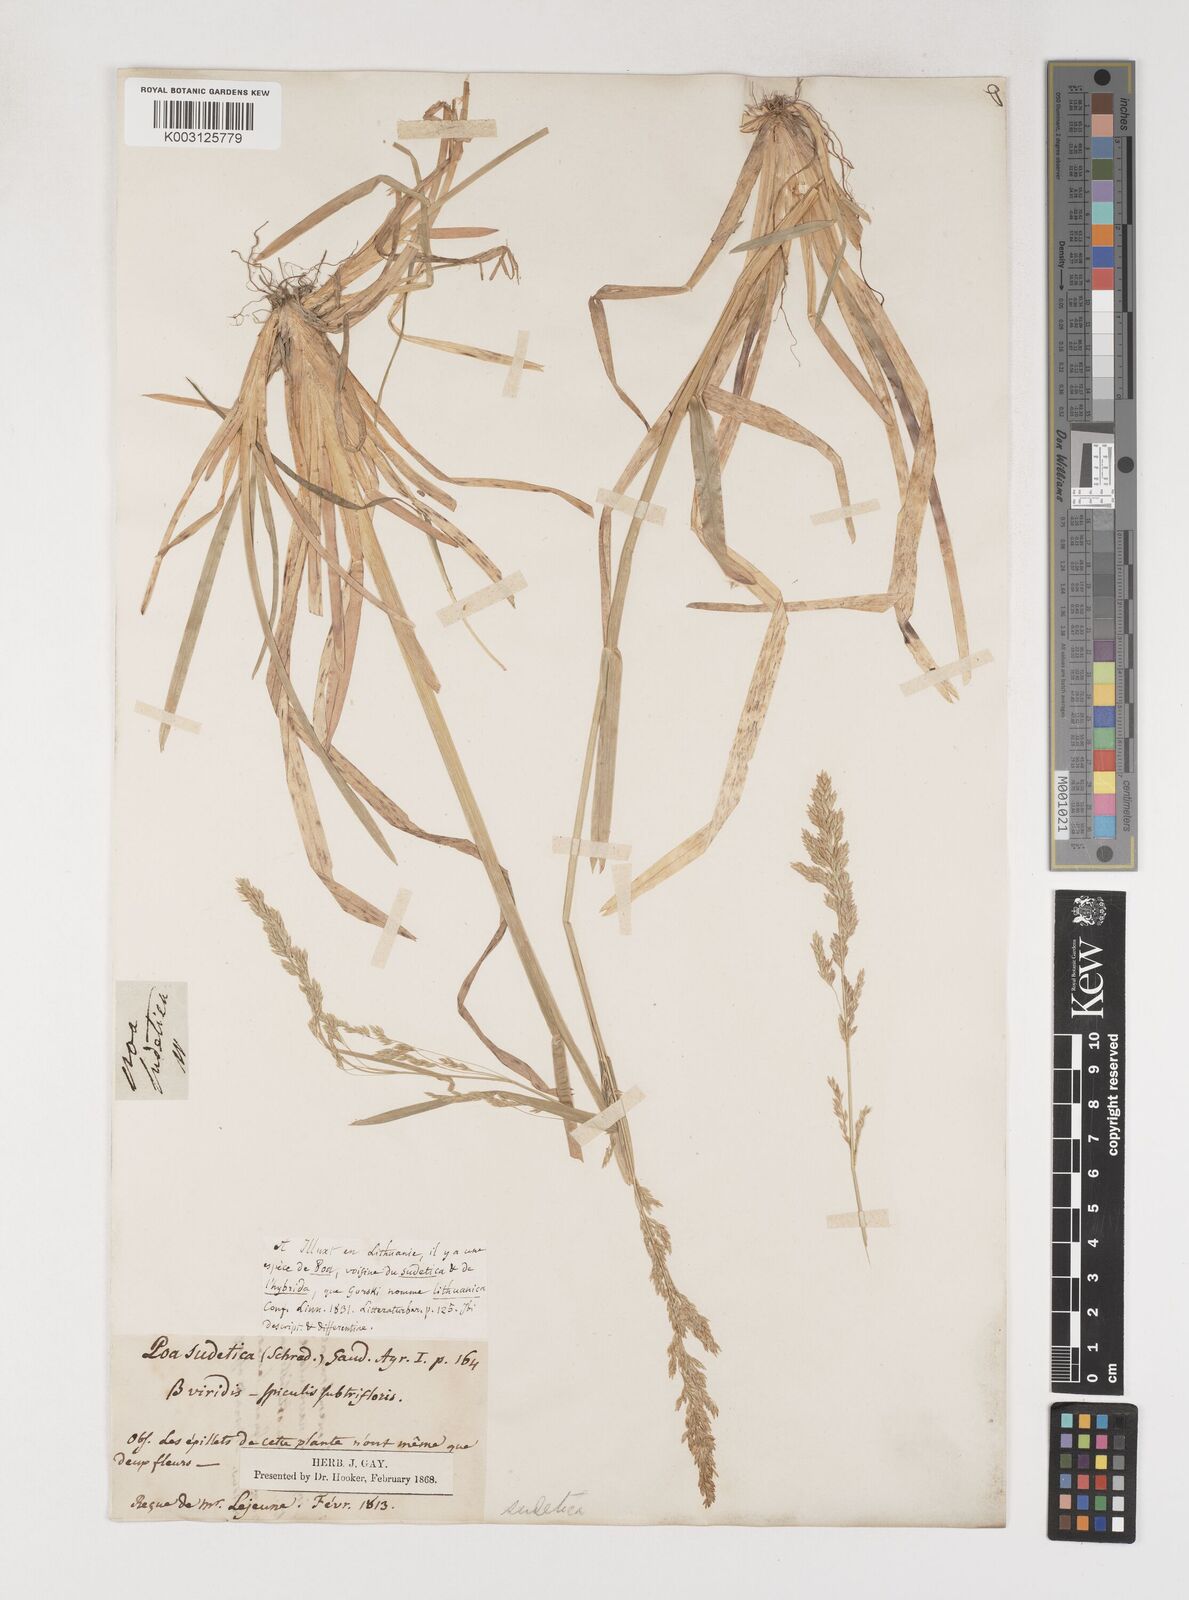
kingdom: Plantae
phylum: Tracheophyta
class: Liliopsida
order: Poales
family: Poaceae
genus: Poa
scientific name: Poa chaixii
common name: Broad-leaved meadow-grass
